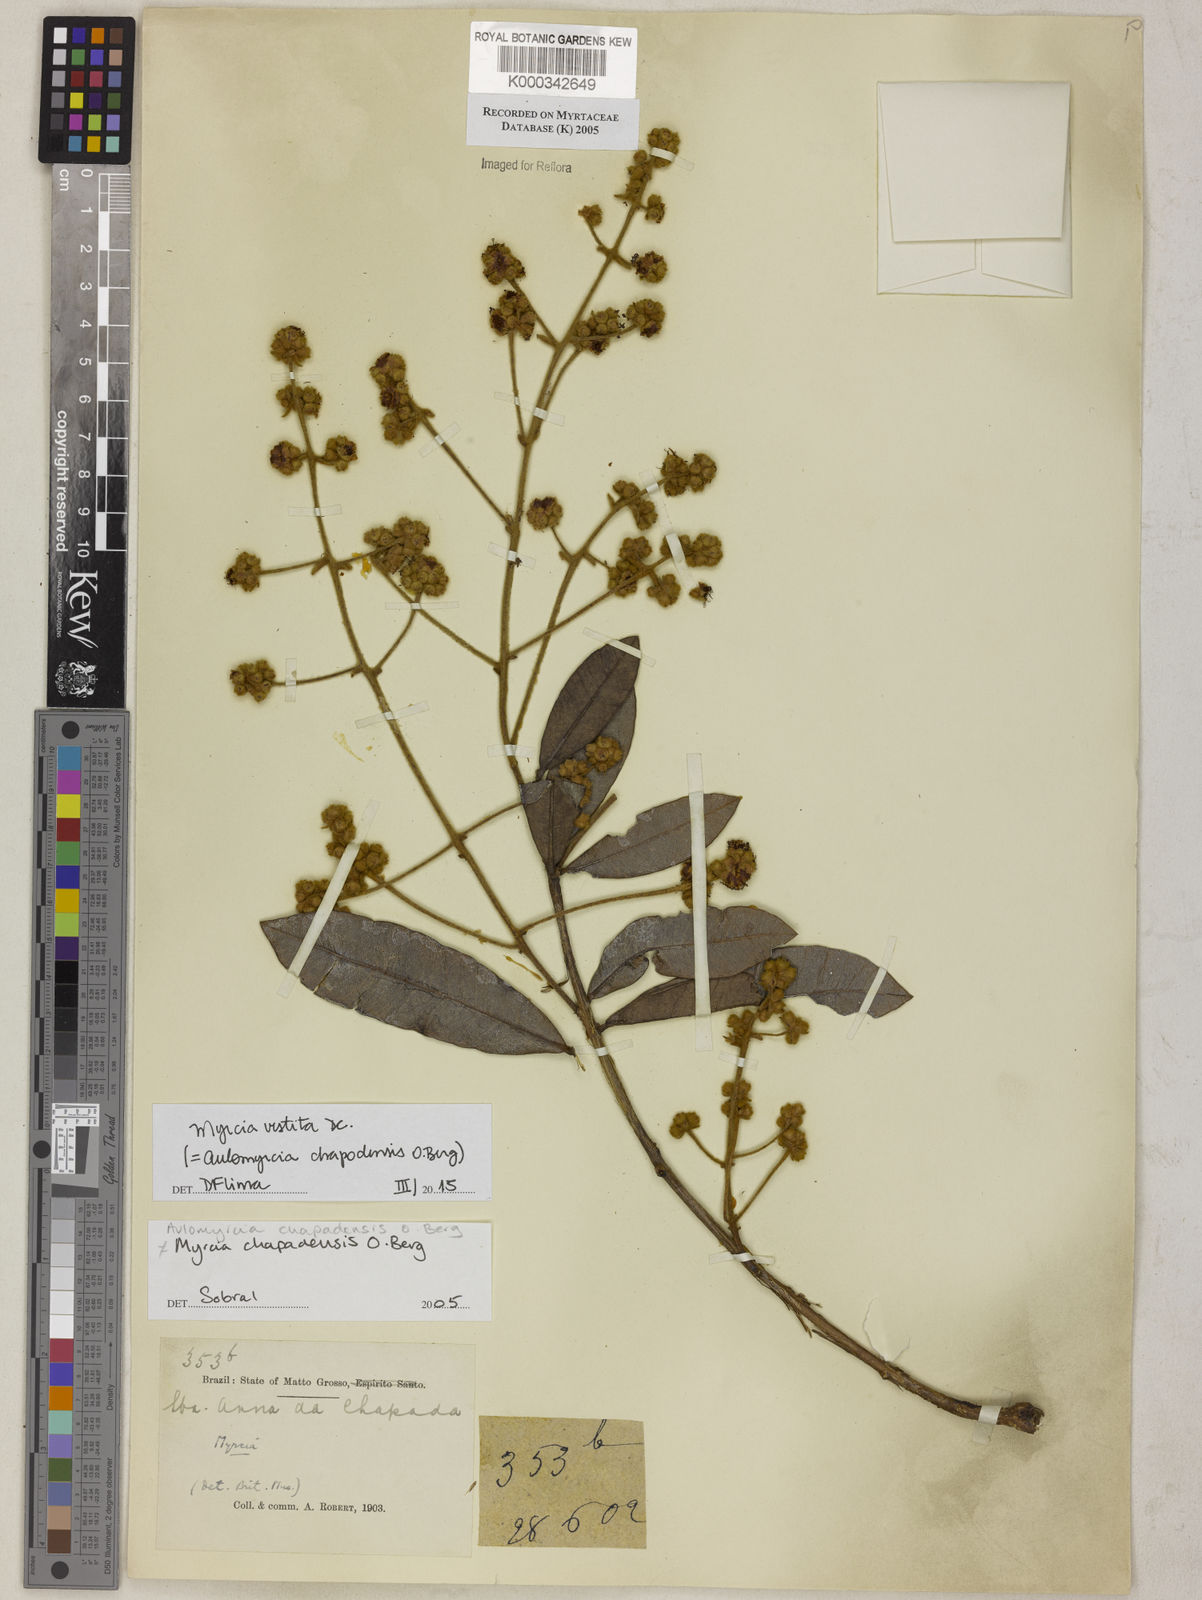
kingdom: Plantae
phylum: Tracheophyta
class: Magnoliopsida
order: Myrtales
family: Myrtaceae
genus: Myrcia
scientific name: Myrcia chapadensis
